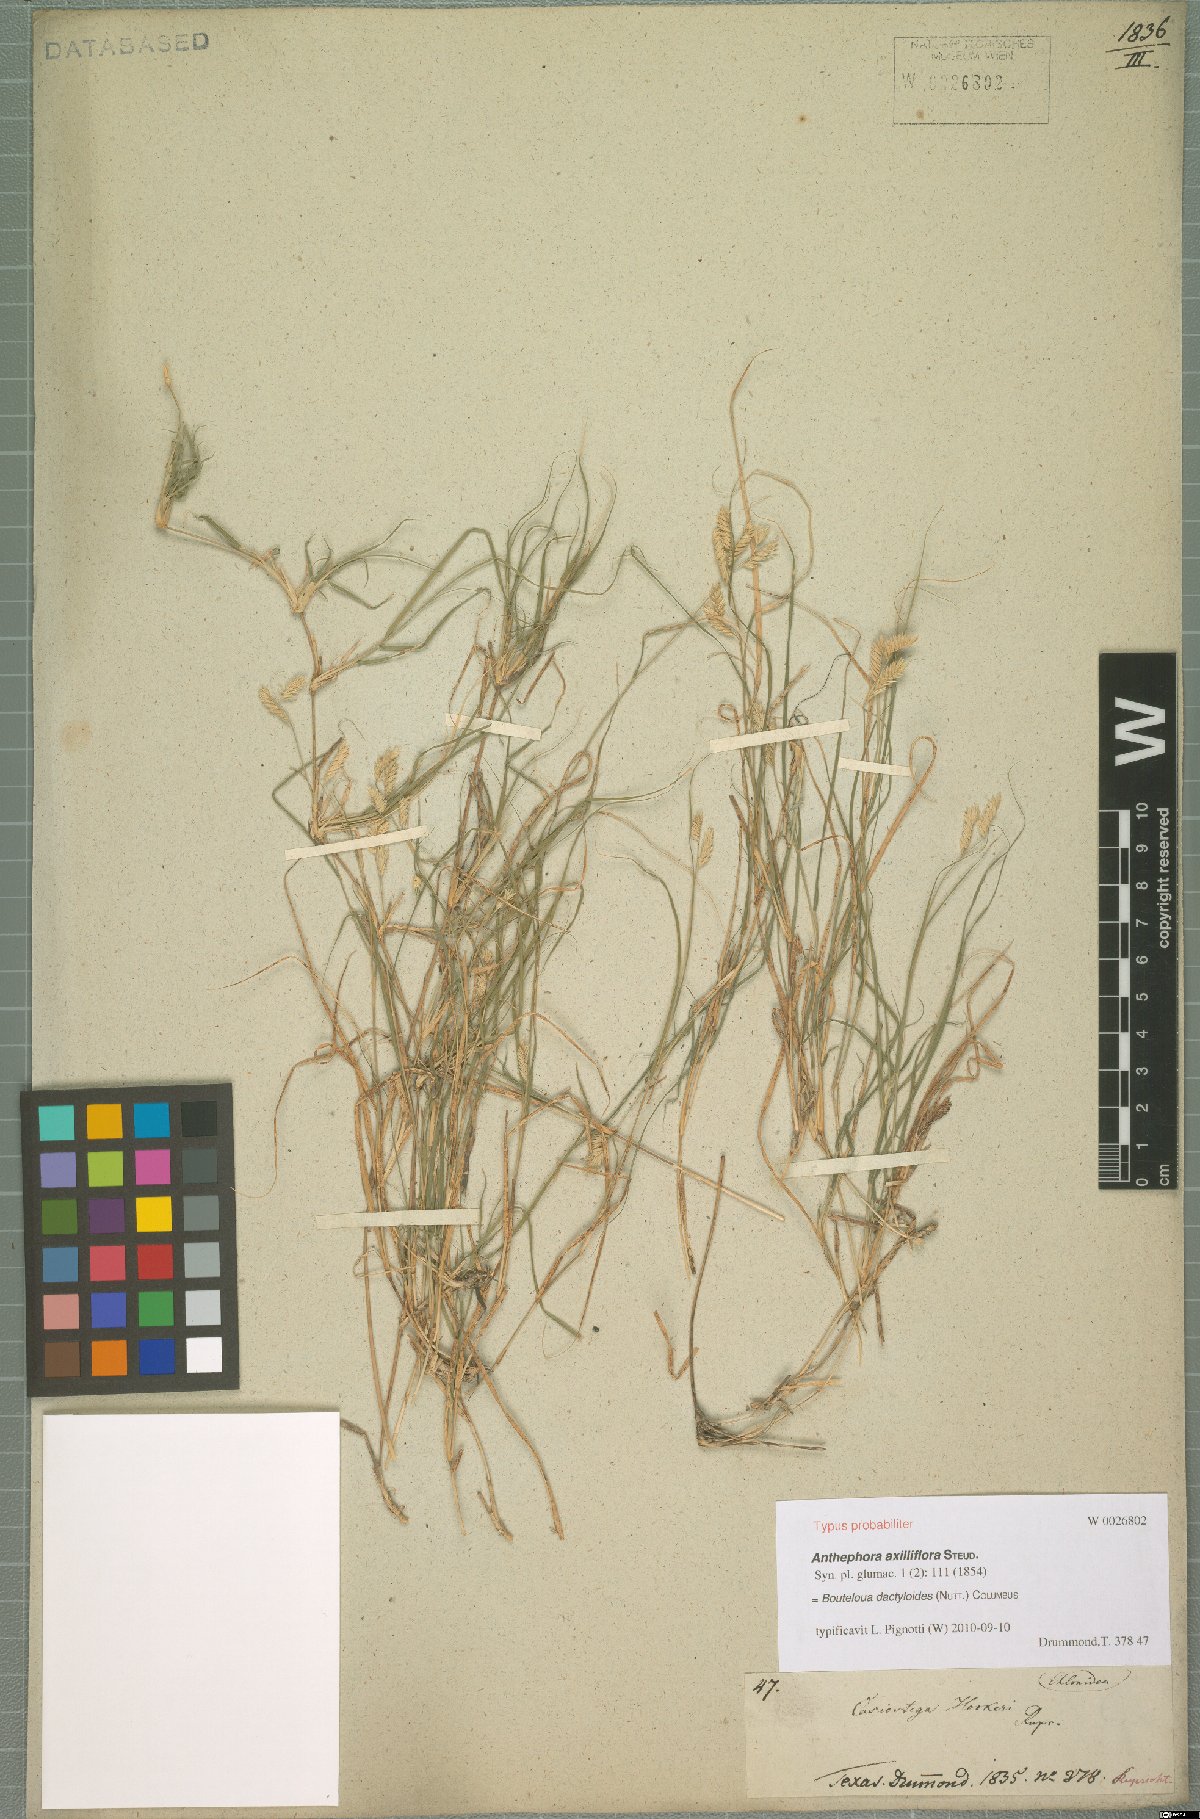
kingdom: Plantae
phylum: Tracheophyta
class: Liliopsida
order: Poales
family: Poaceae
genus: Bouteloua
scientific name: Bouteloua dactyloides
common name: Buffalo grass
